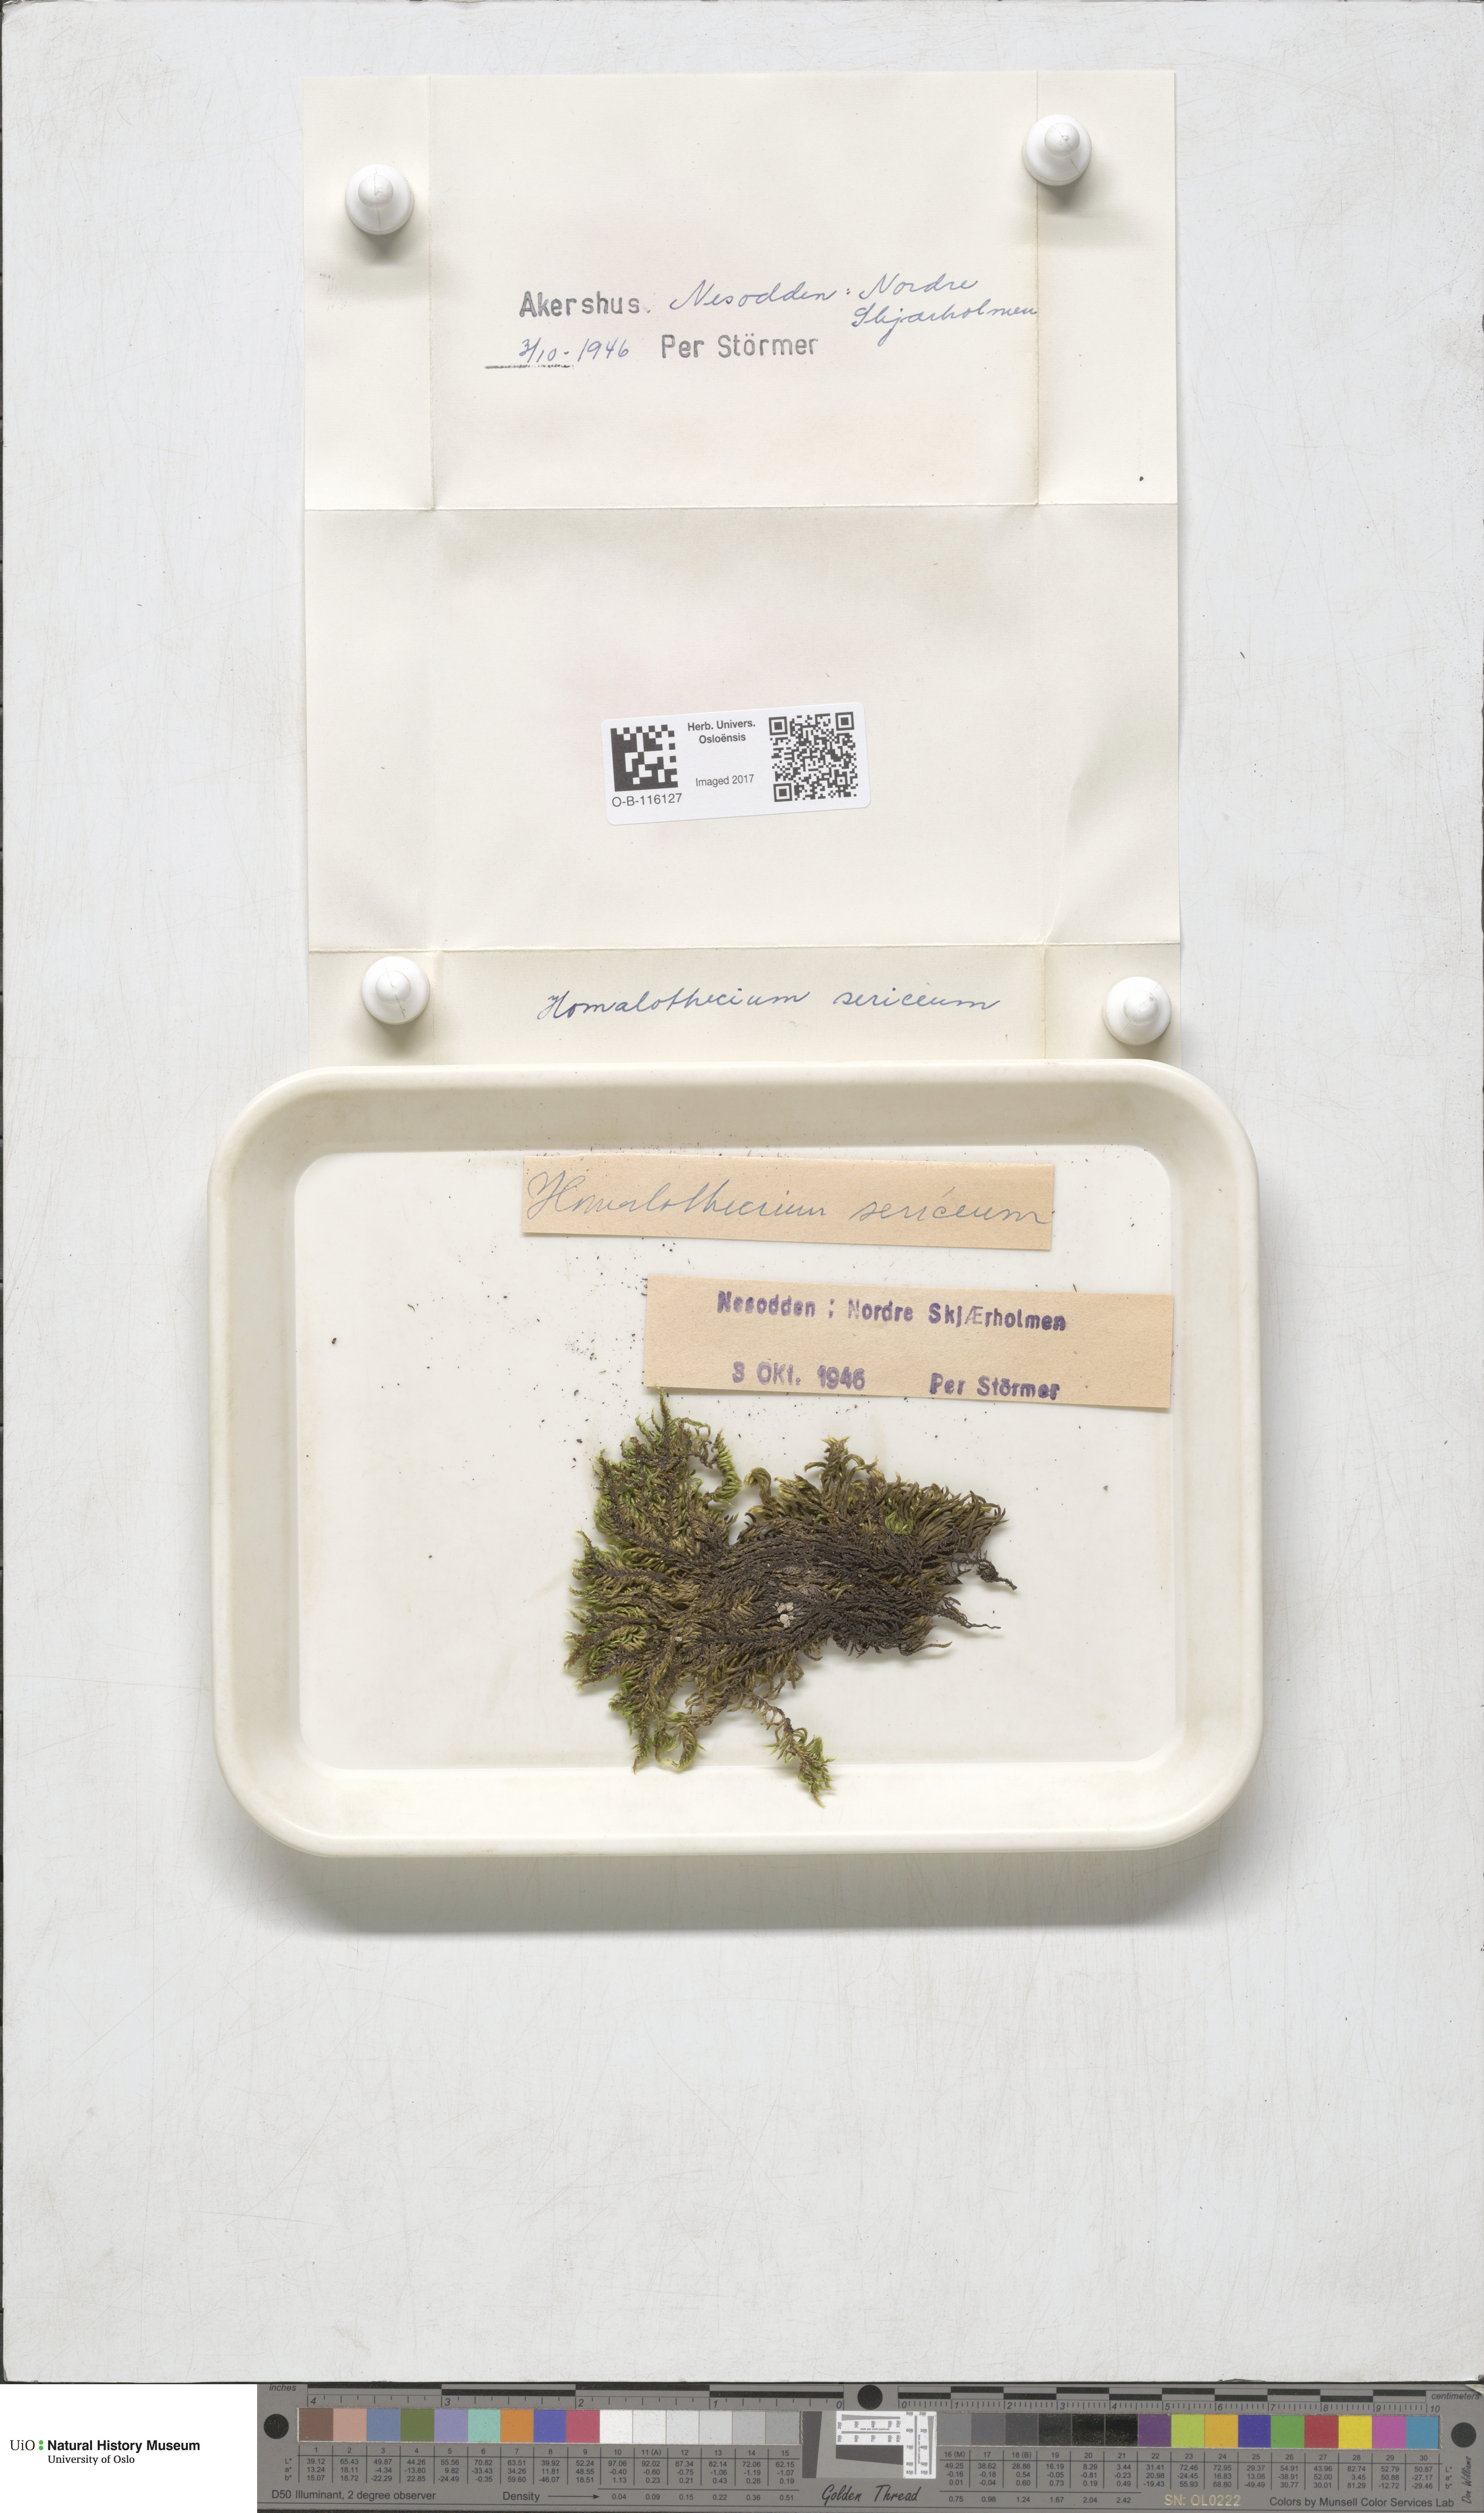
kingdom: Plantae
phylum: Bryophyta
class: Bryopsida
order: Hypnales
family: Brachytheciaceae
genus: Homalothecium
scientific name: Homalothecium sericeum
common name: Silky wall feather-moss
